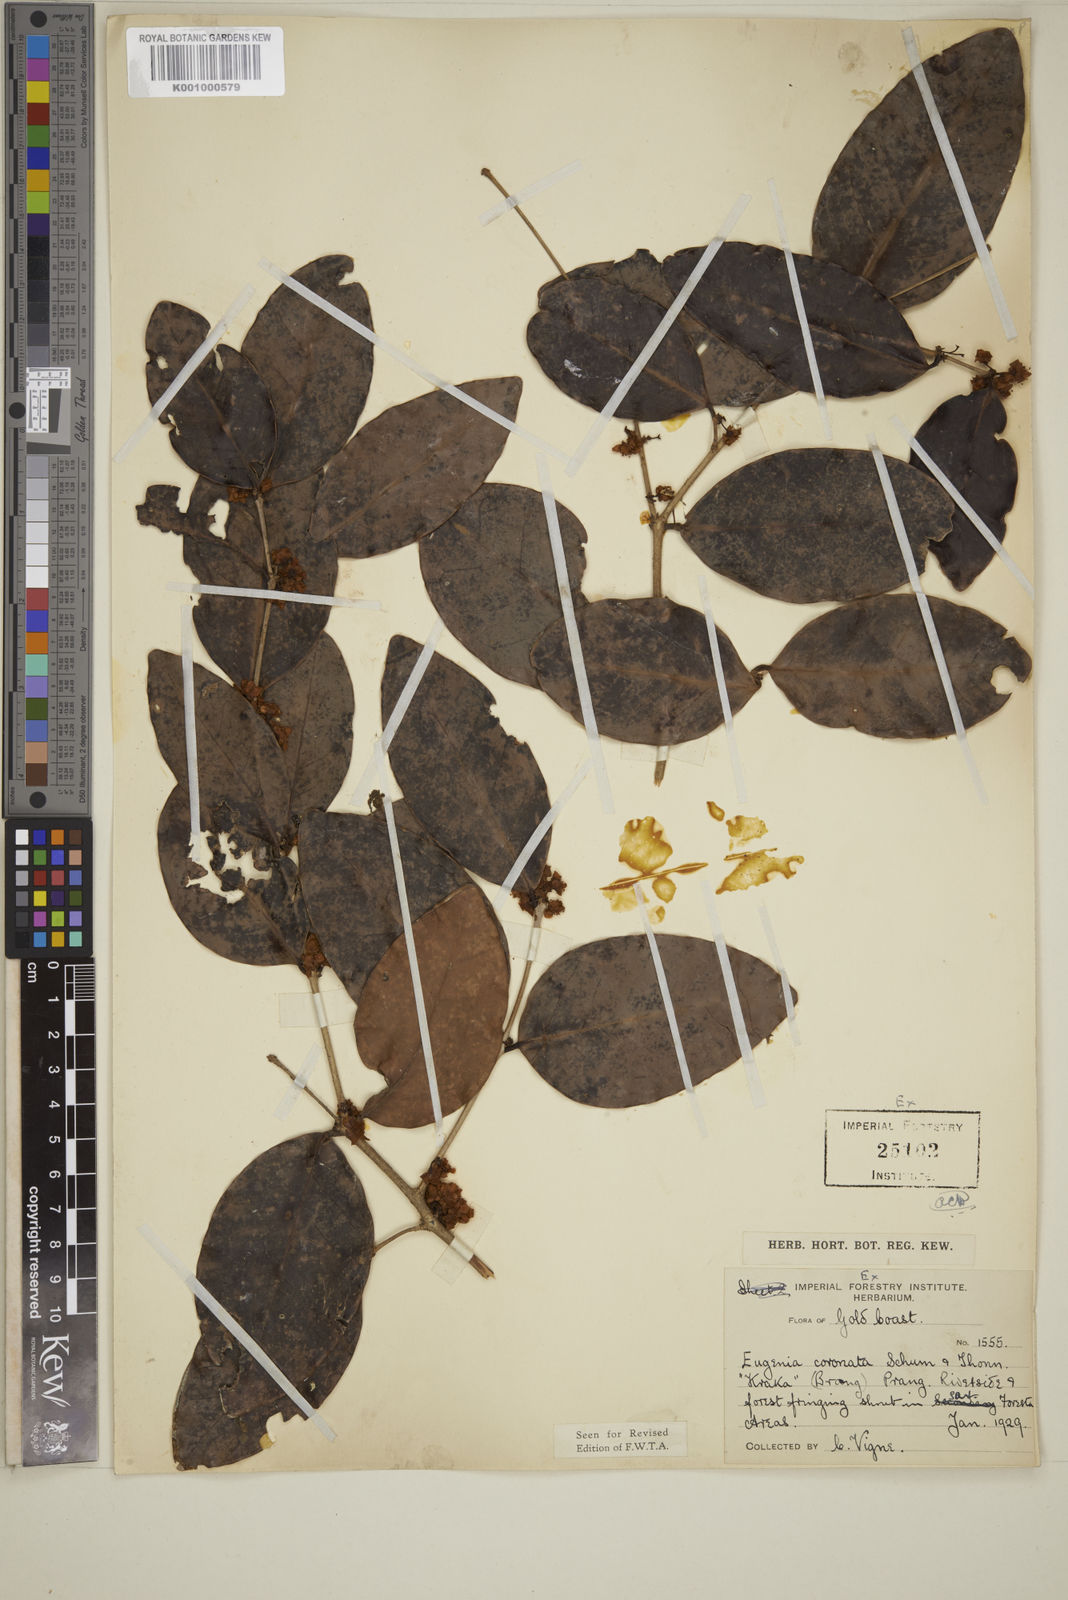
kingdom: Plantae
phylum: Tracheophyta
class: Magnoliopsida
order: Myrtales
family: Myrtaceae
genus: Eugenia
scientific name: Eugenia coronata
